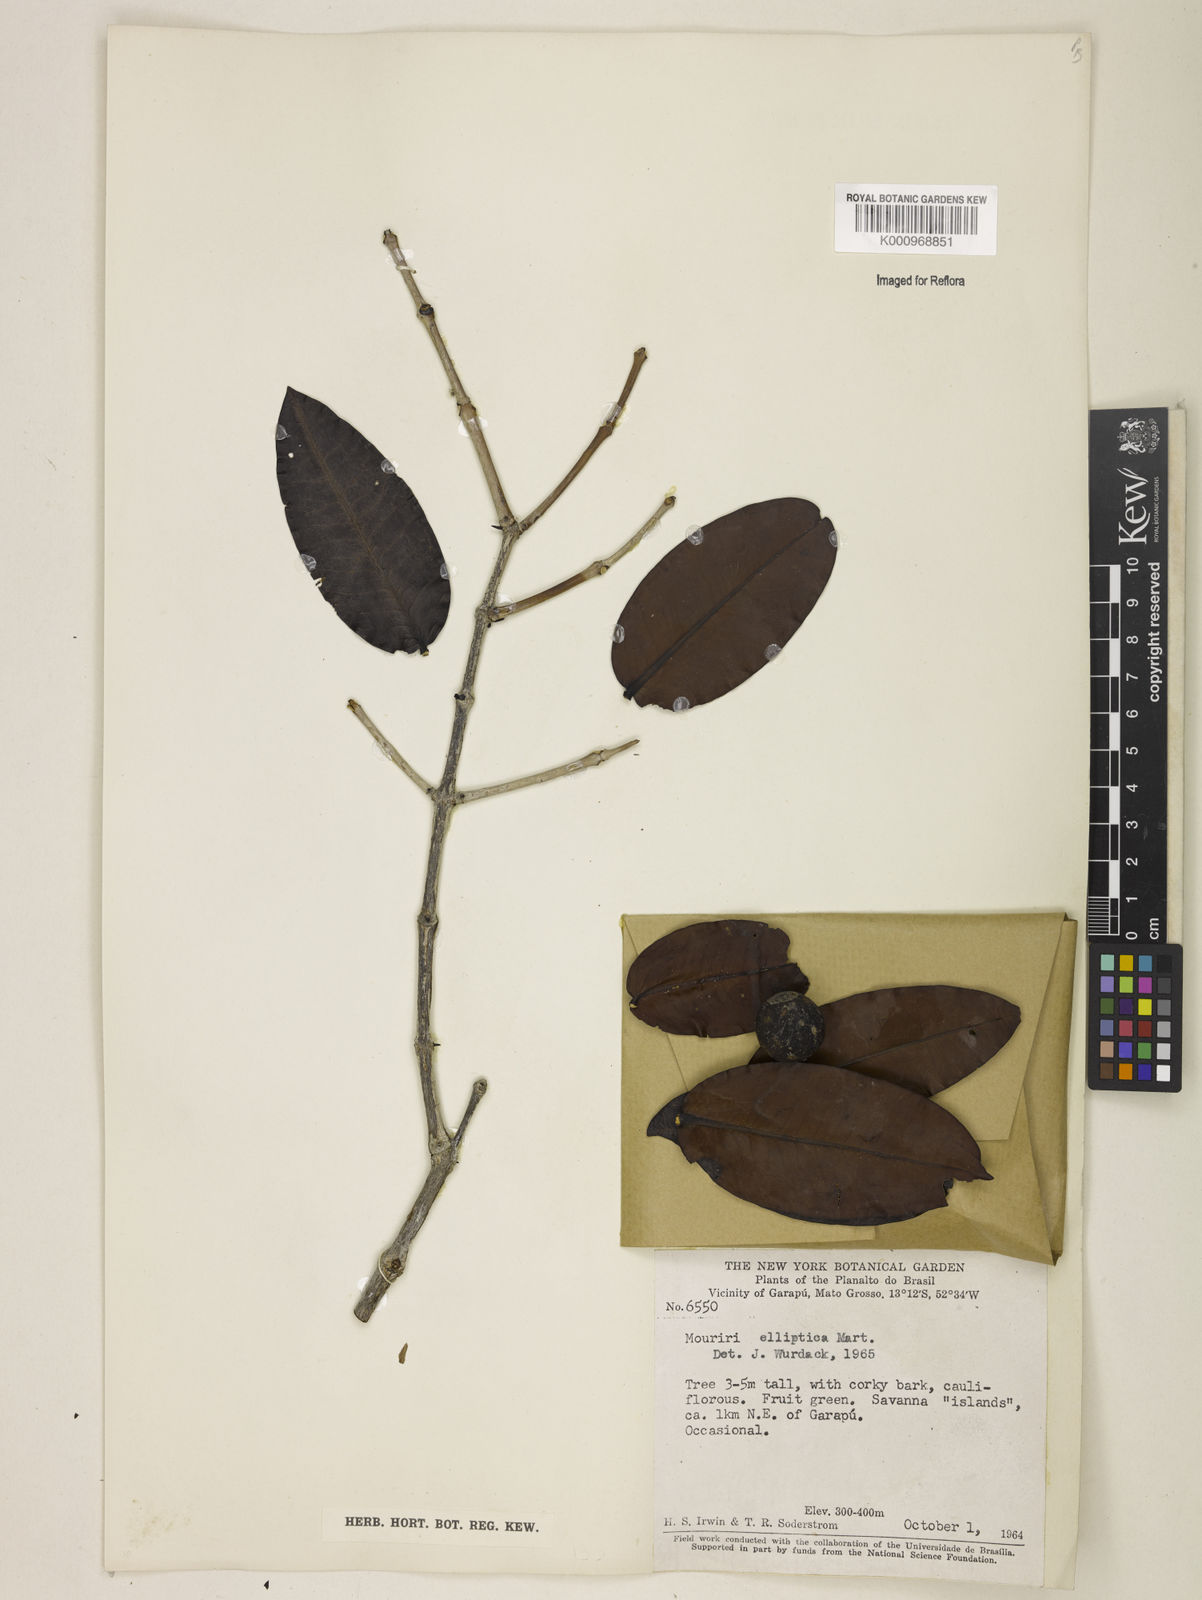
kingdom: Plantae
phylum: Tracheophyta
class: Magnoliopsida
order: Myrtales
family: Melastomataceae
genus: Mouriri
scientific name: Mouriri elliptica
